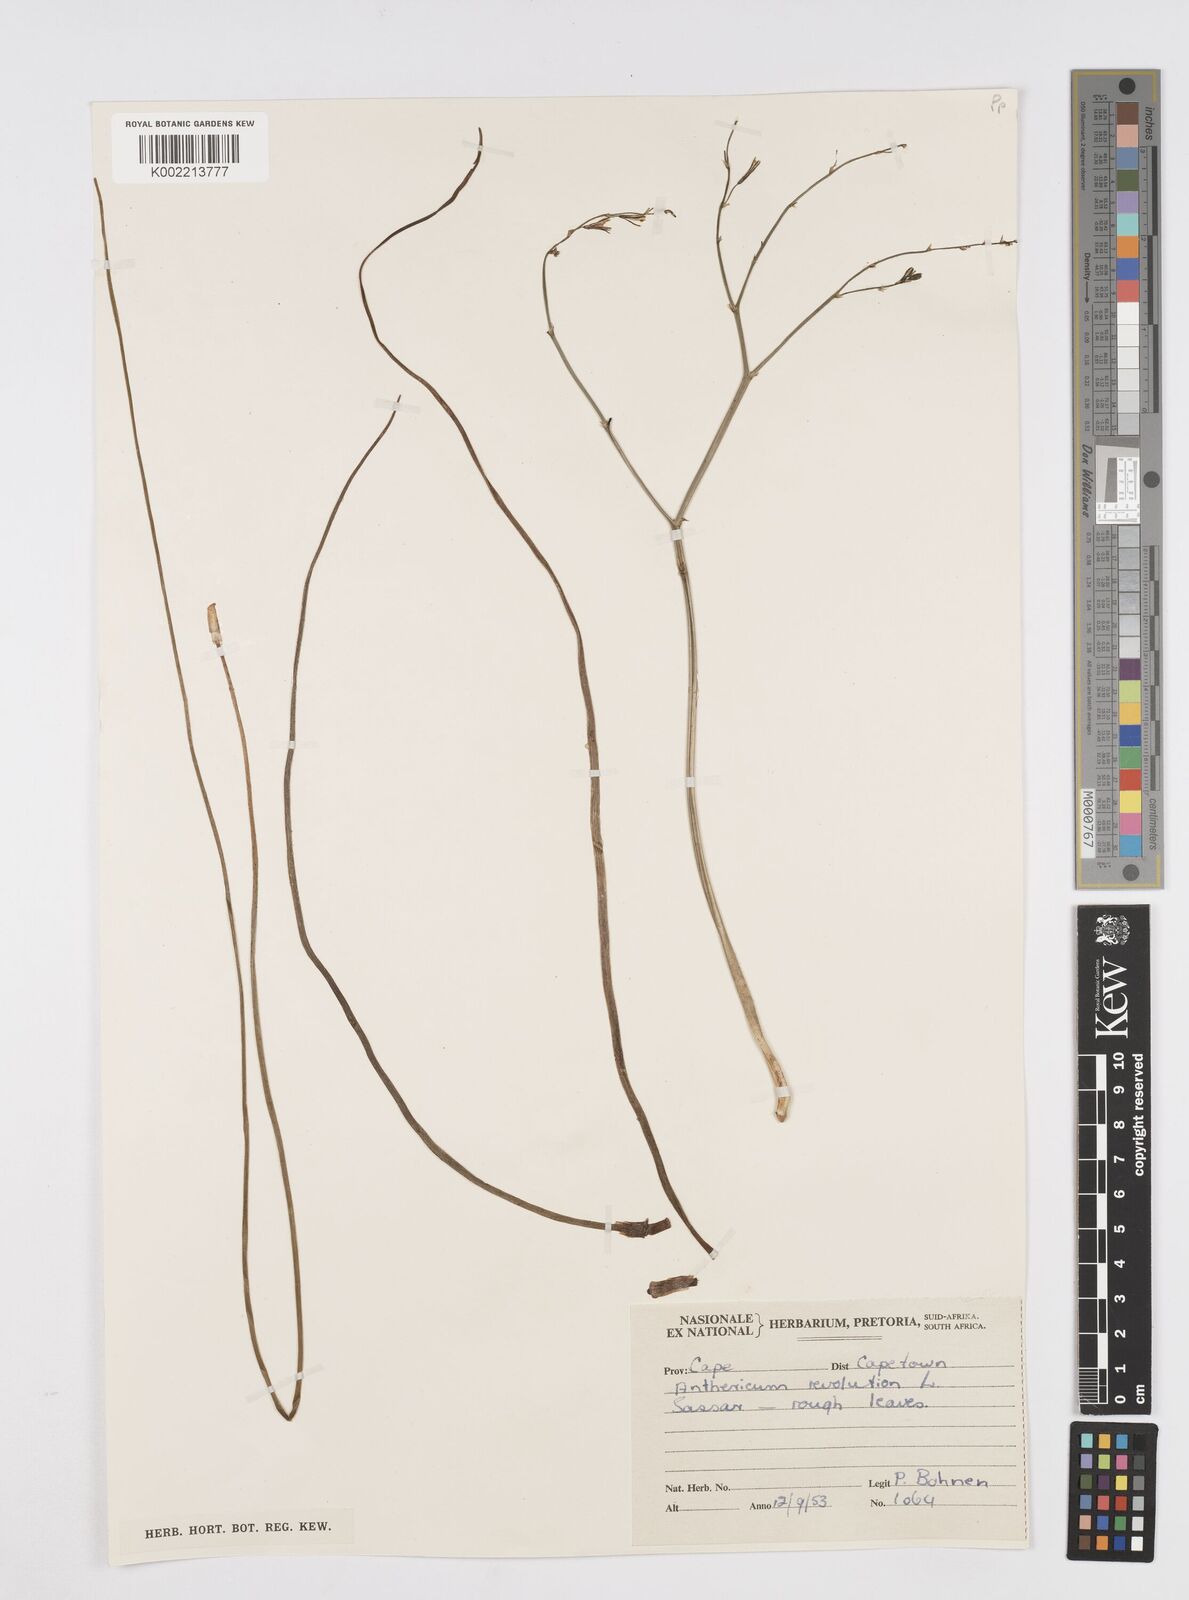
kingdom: Plantae
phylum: Tracheophyta
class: Liliopsida
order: Asparagales
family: Asphodelaceae
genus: Trachyandra
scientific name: Trachyandra revoluta
